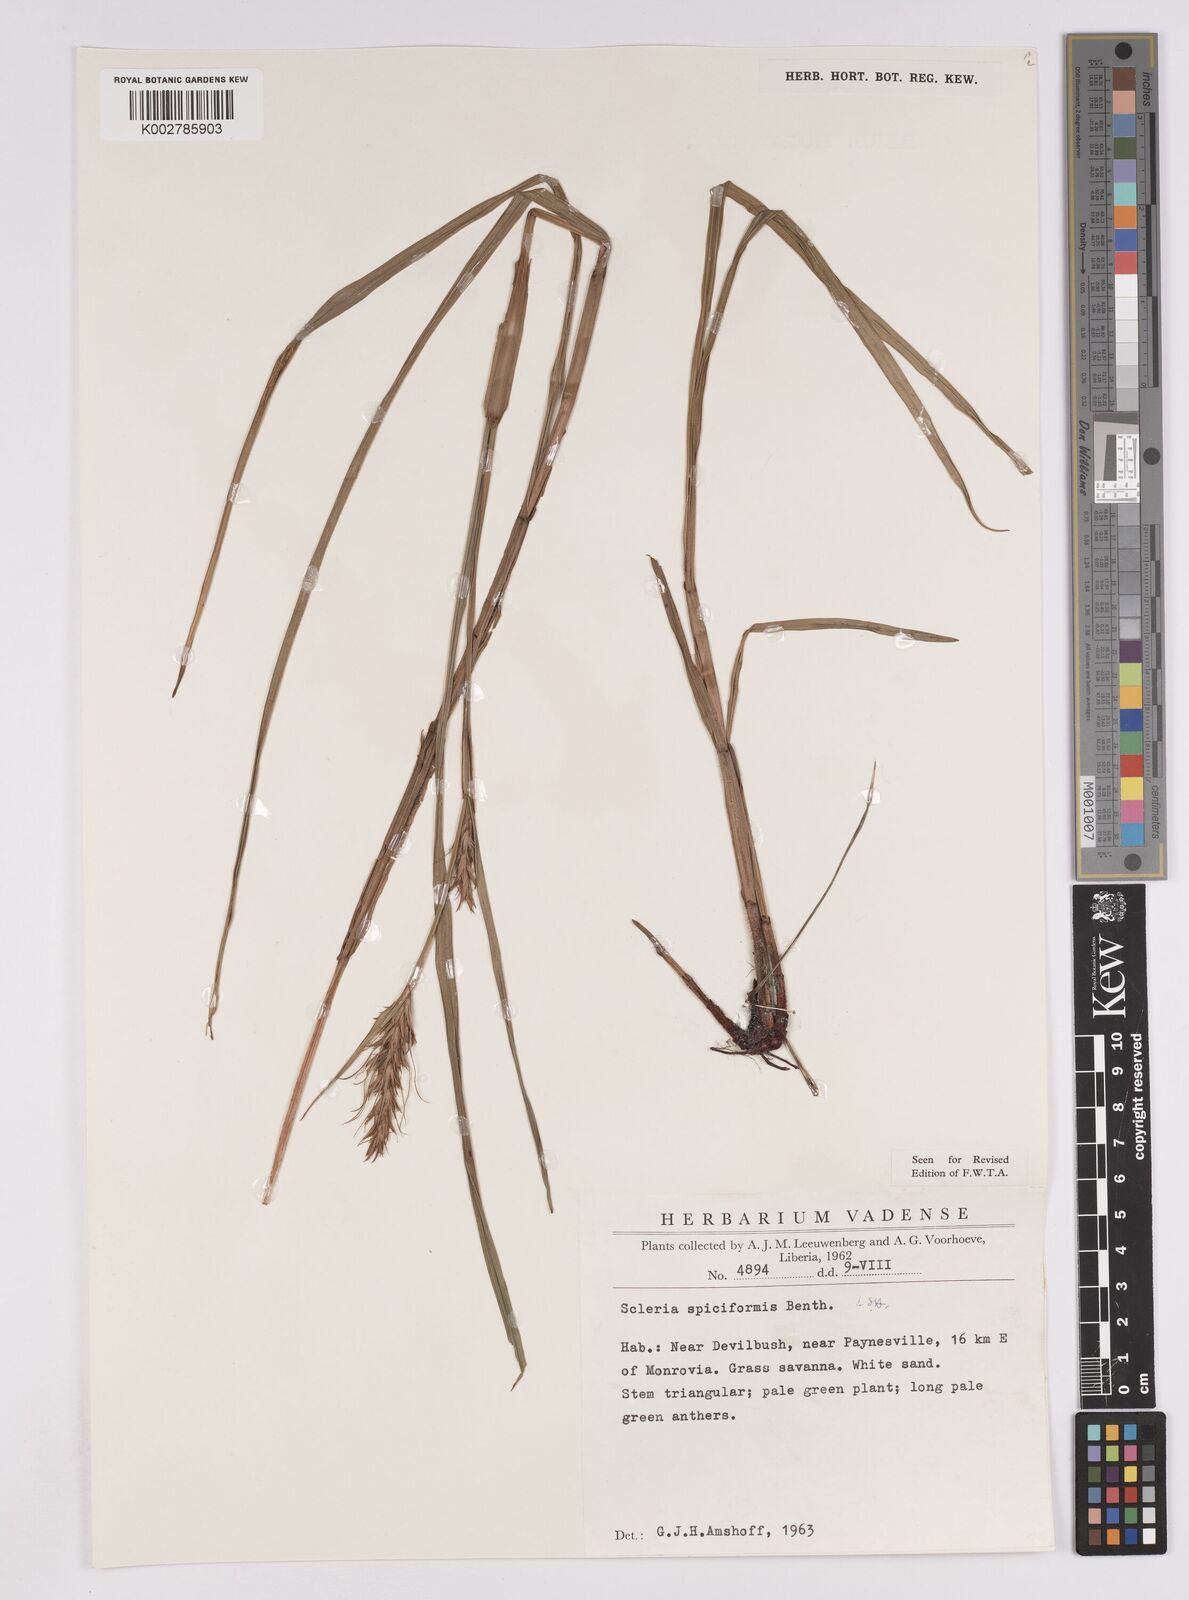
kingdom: Plantae
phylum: Tracheophyta
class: Liliopsida
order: Poales
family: Cyperaceae
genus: Scleria
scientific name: Scleria spiciformis
